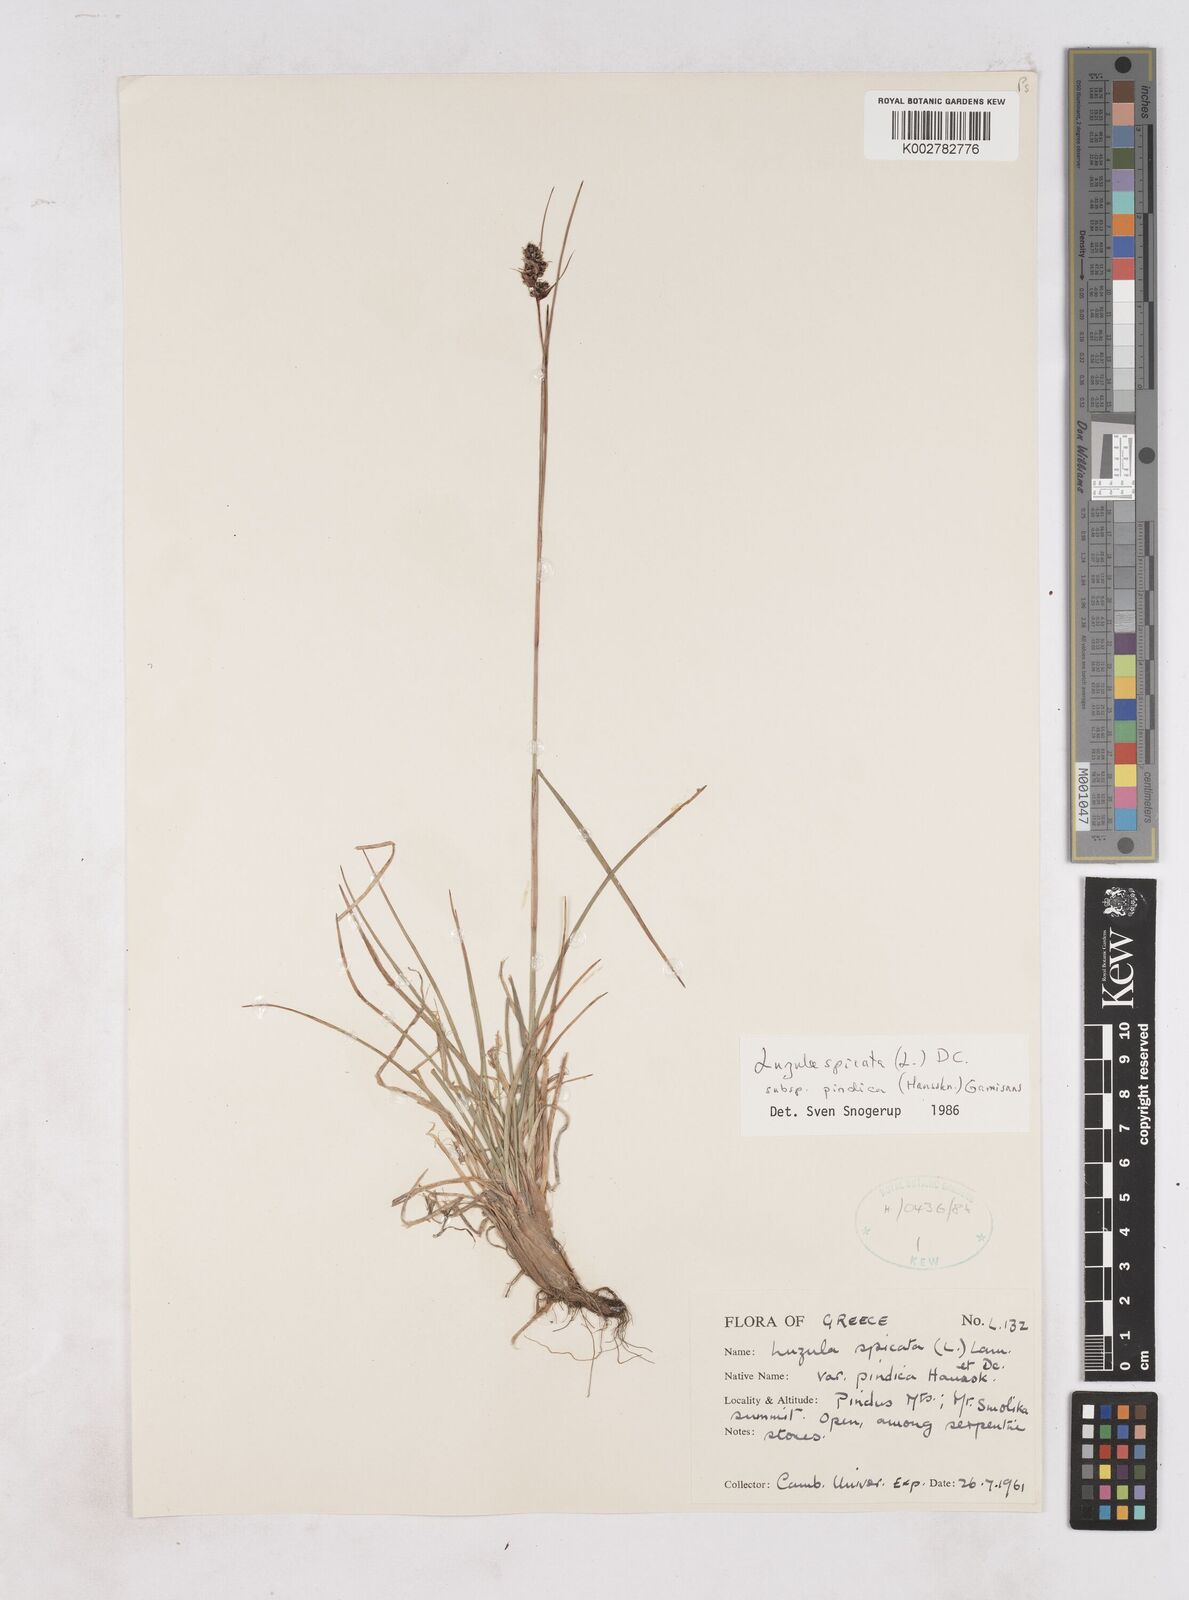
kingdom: Plantae
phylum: Tracheophyta
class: Liliopsida
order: Poales
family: Juncaceae
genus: Luzula
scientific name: Luzula pindica
